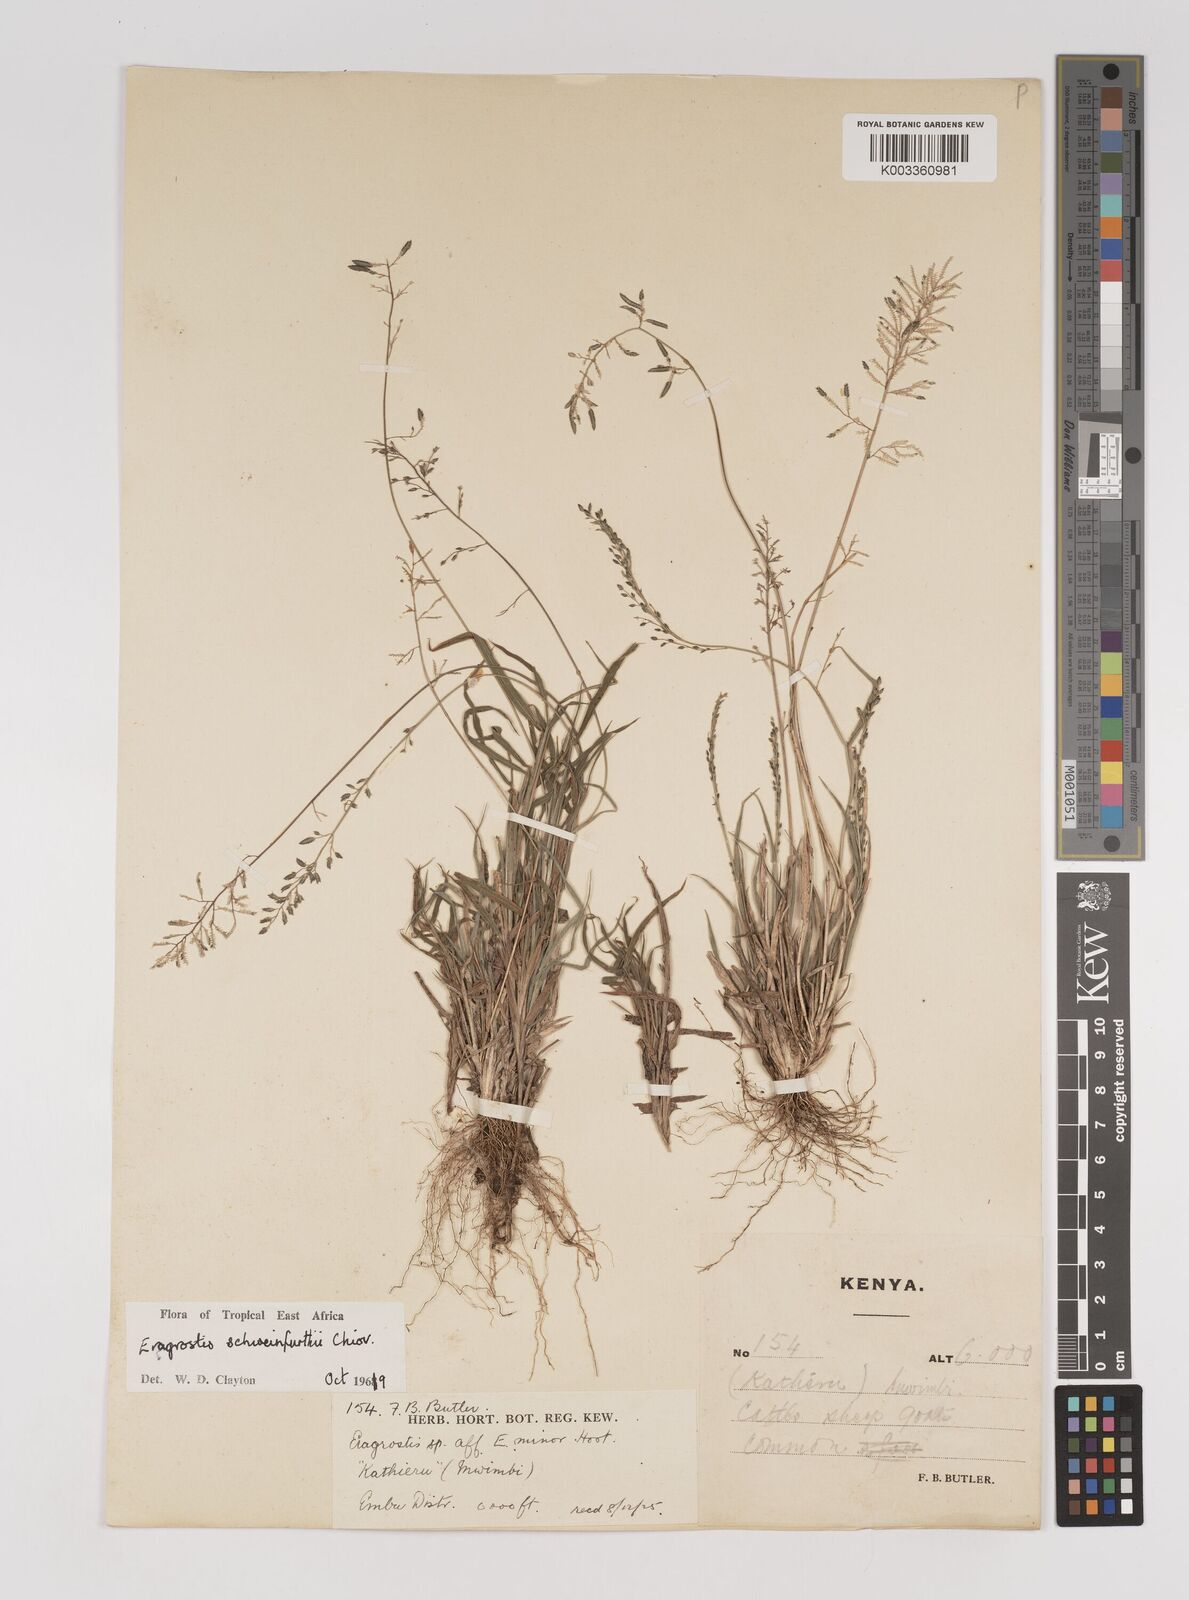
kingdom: Plantae
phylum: Tracheophyta
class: Liliopsida
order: Poales
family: Poaceae
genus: Eragrostis
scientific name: Eragrostis schweinfurthii
